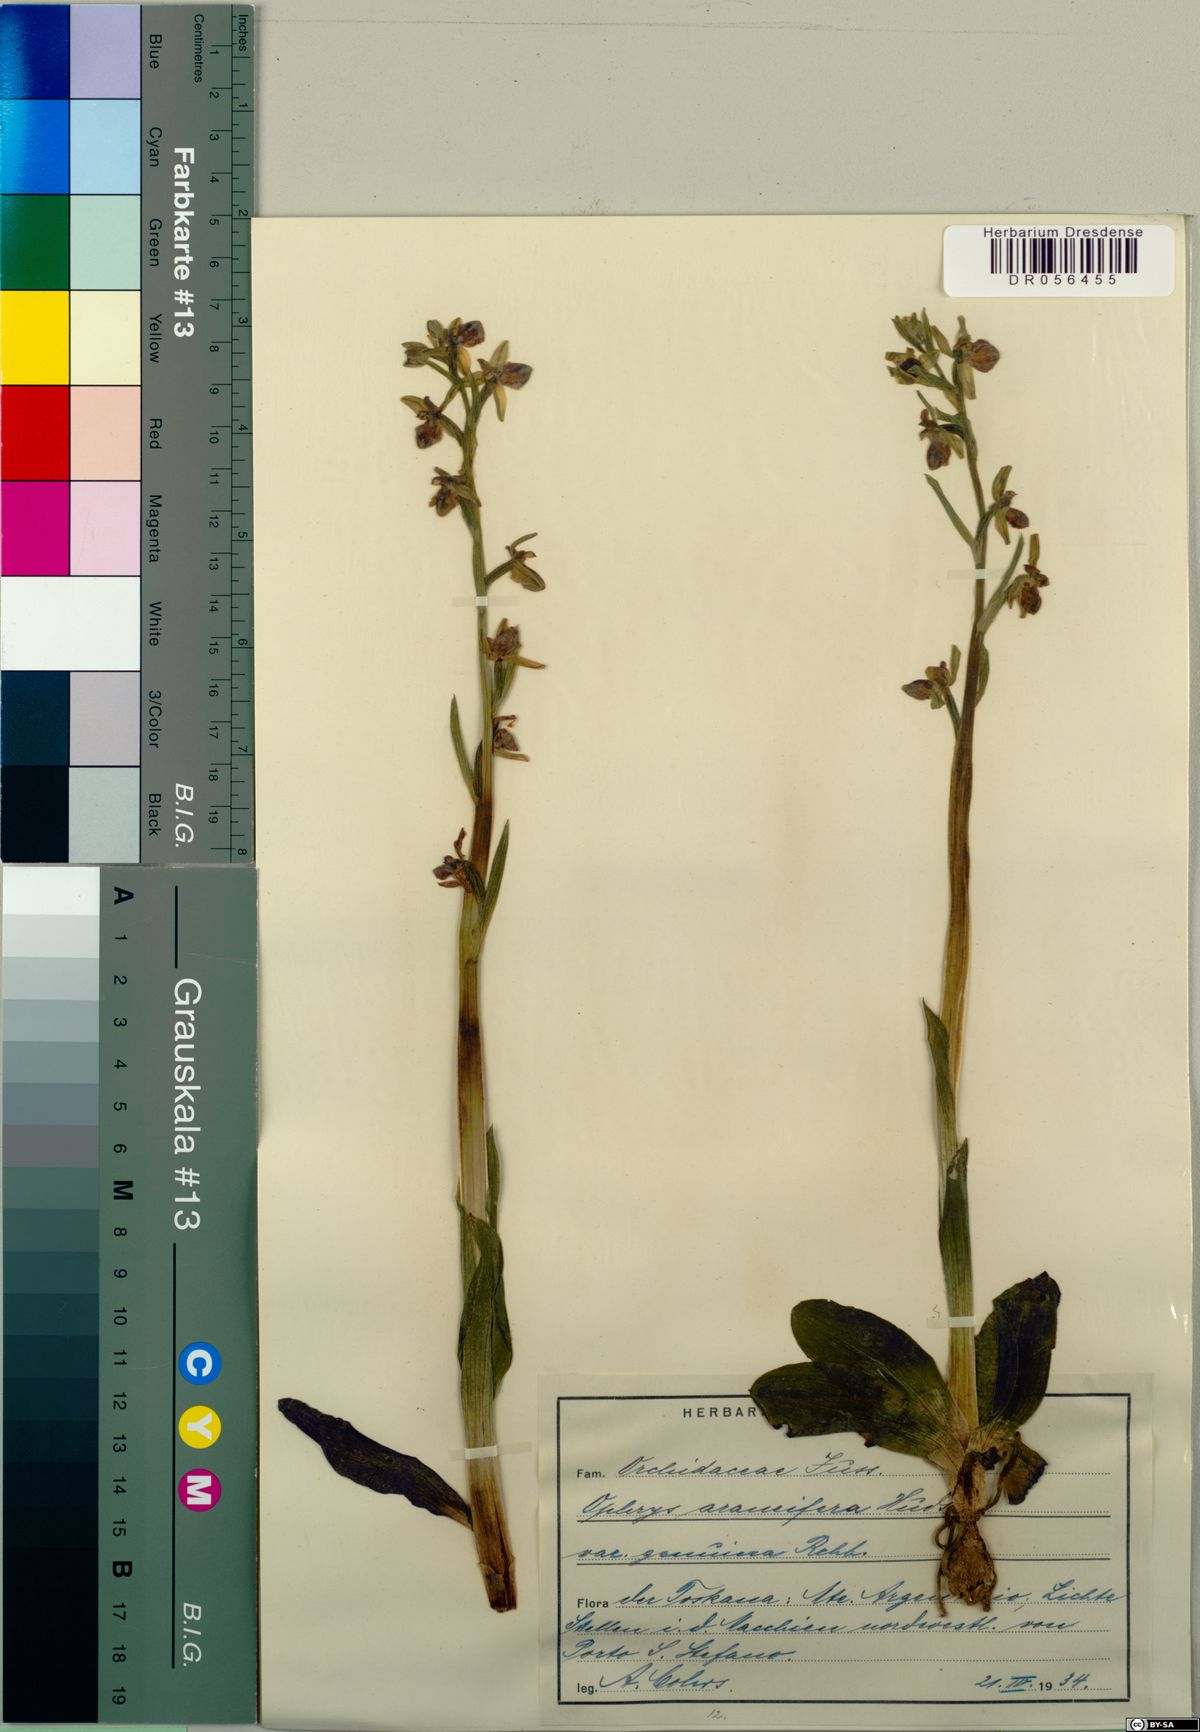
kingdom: Plantae
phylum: Tracheophyta
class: Liliopsida
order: Asparagales
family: Orchidaceae
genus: Ophrys
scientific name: Ophrys sphegodes
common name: Early spider-orchid
